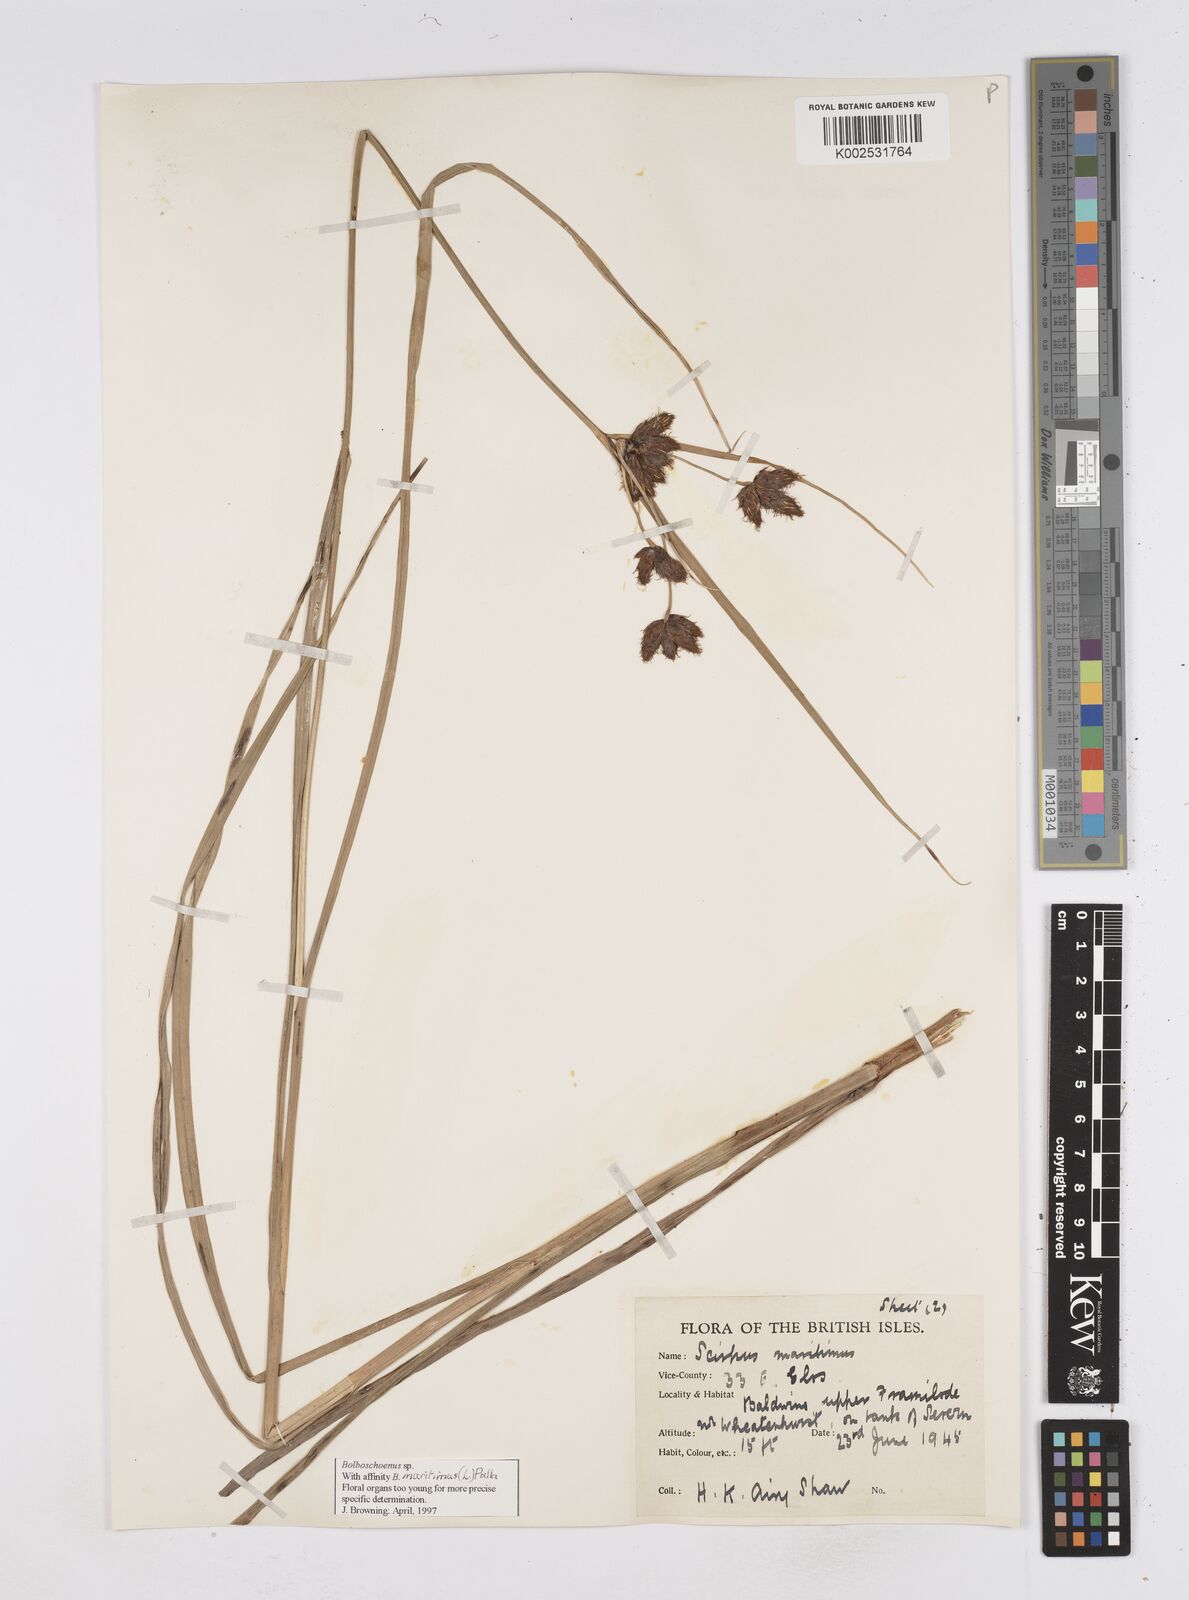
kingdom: Plantae
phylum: Tracheophyta
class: Liliopsida
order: Poales
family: Cyperaceae
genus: Bolboschoenus
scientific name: Bolboschoenus maritimus
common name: Sea club-rush
